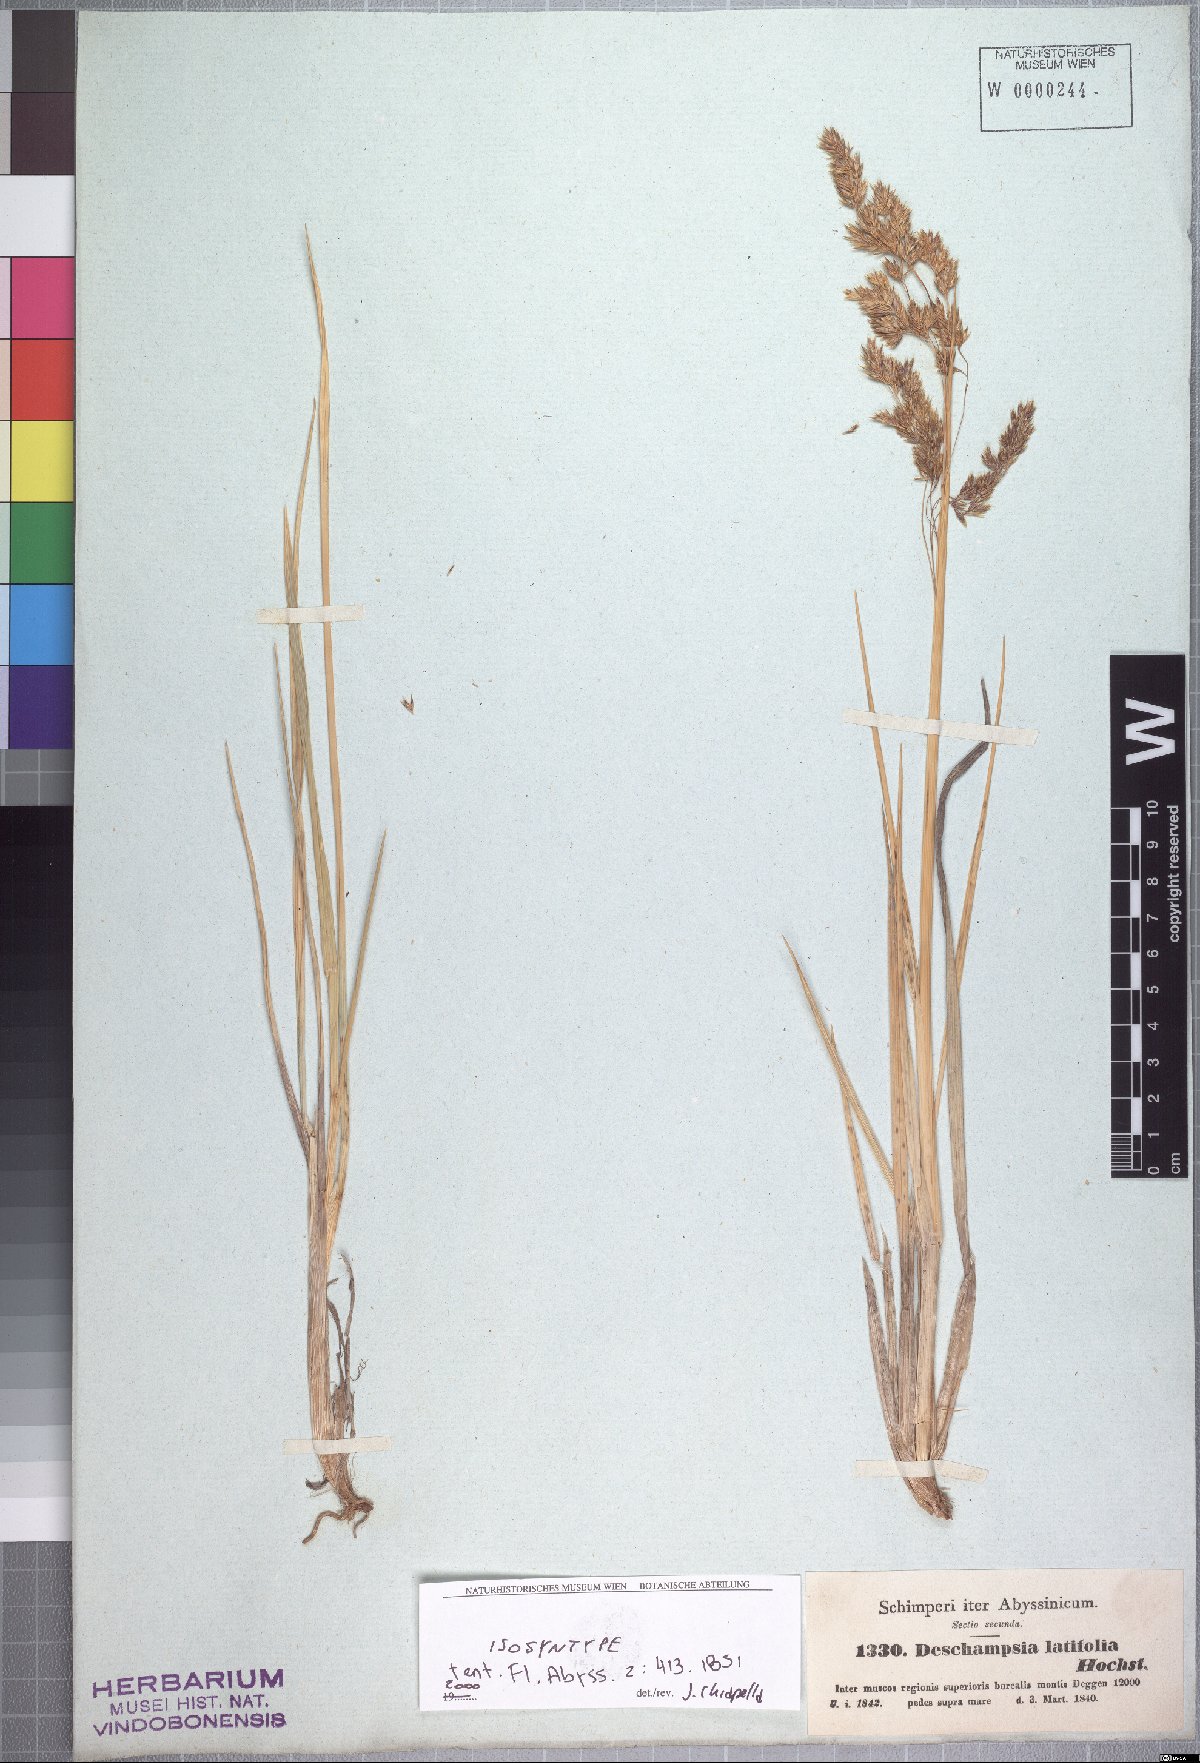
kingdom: Plantae
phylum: Tracheophyta
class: Liliopsida
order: Poales
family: Poaceae
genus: Deschampsia
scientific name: Deschampsia cespitosa
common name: Tufted hair-grass
